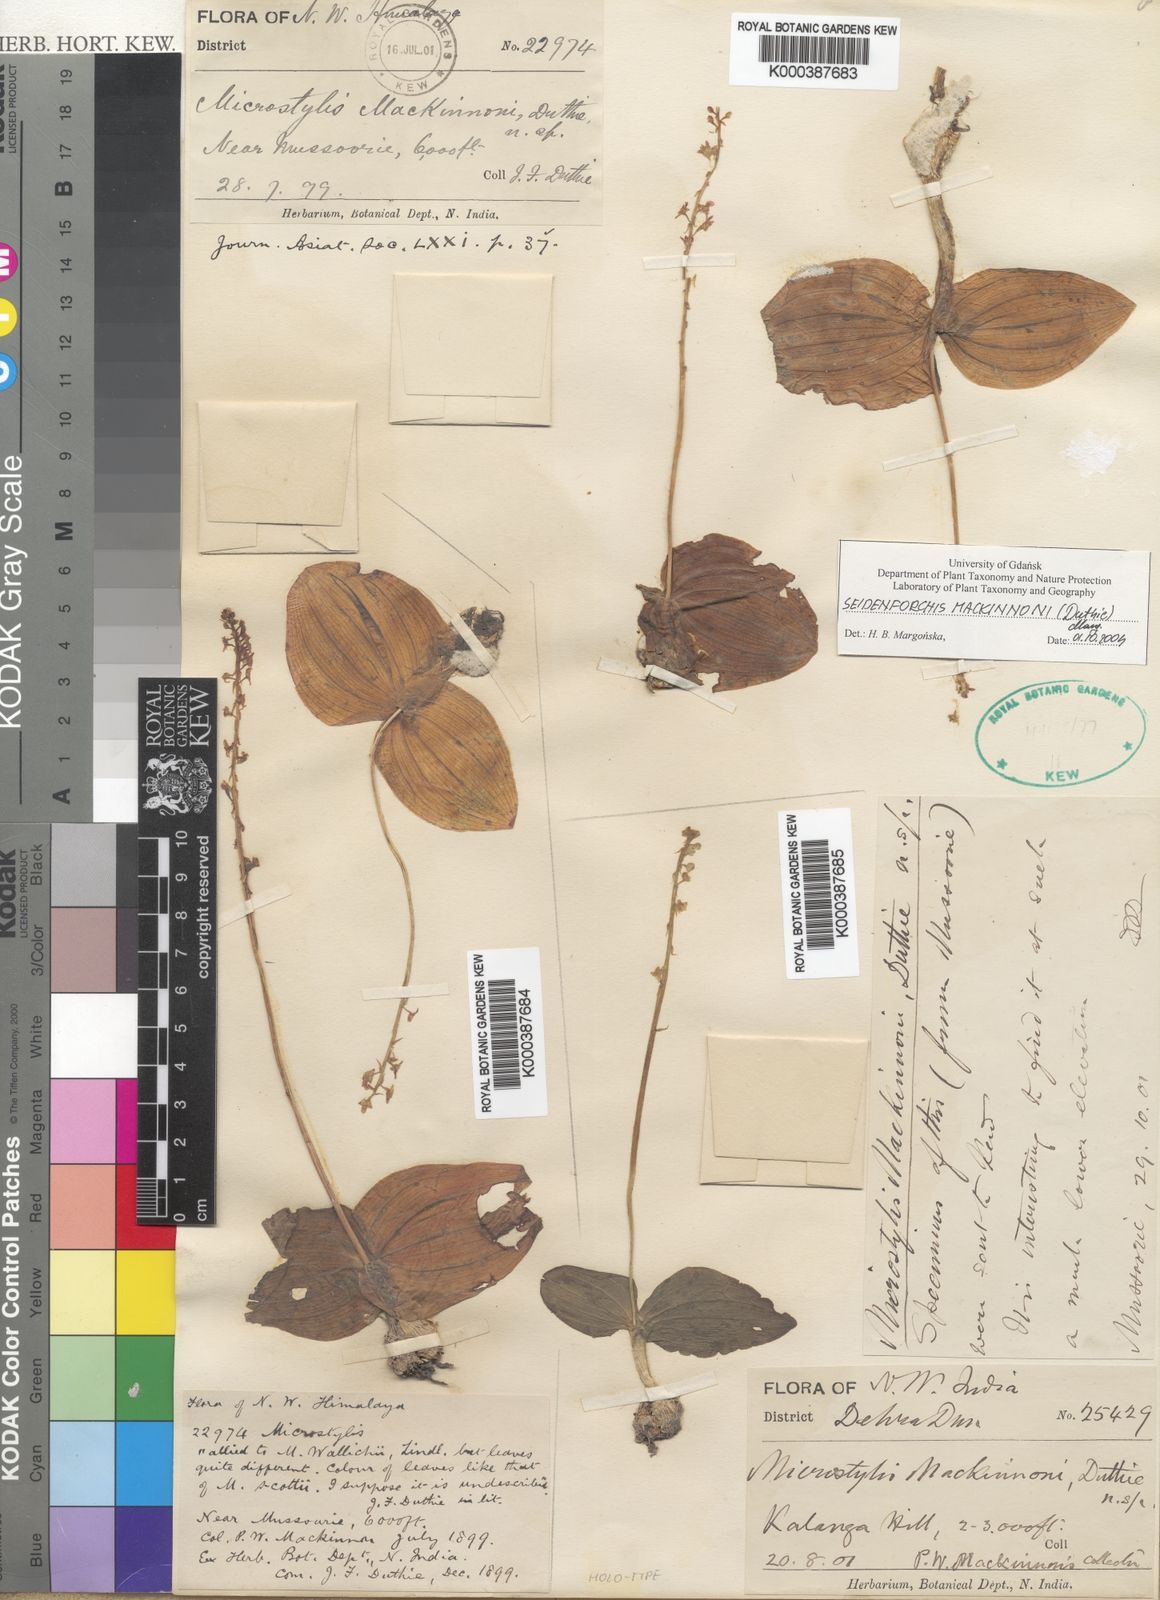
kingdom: Plantae
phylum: Tracheophyta
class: Liliopsida
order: Asparagales
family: Orchidaceae
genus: Crepidium
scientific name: Crepidium mackinnonii
